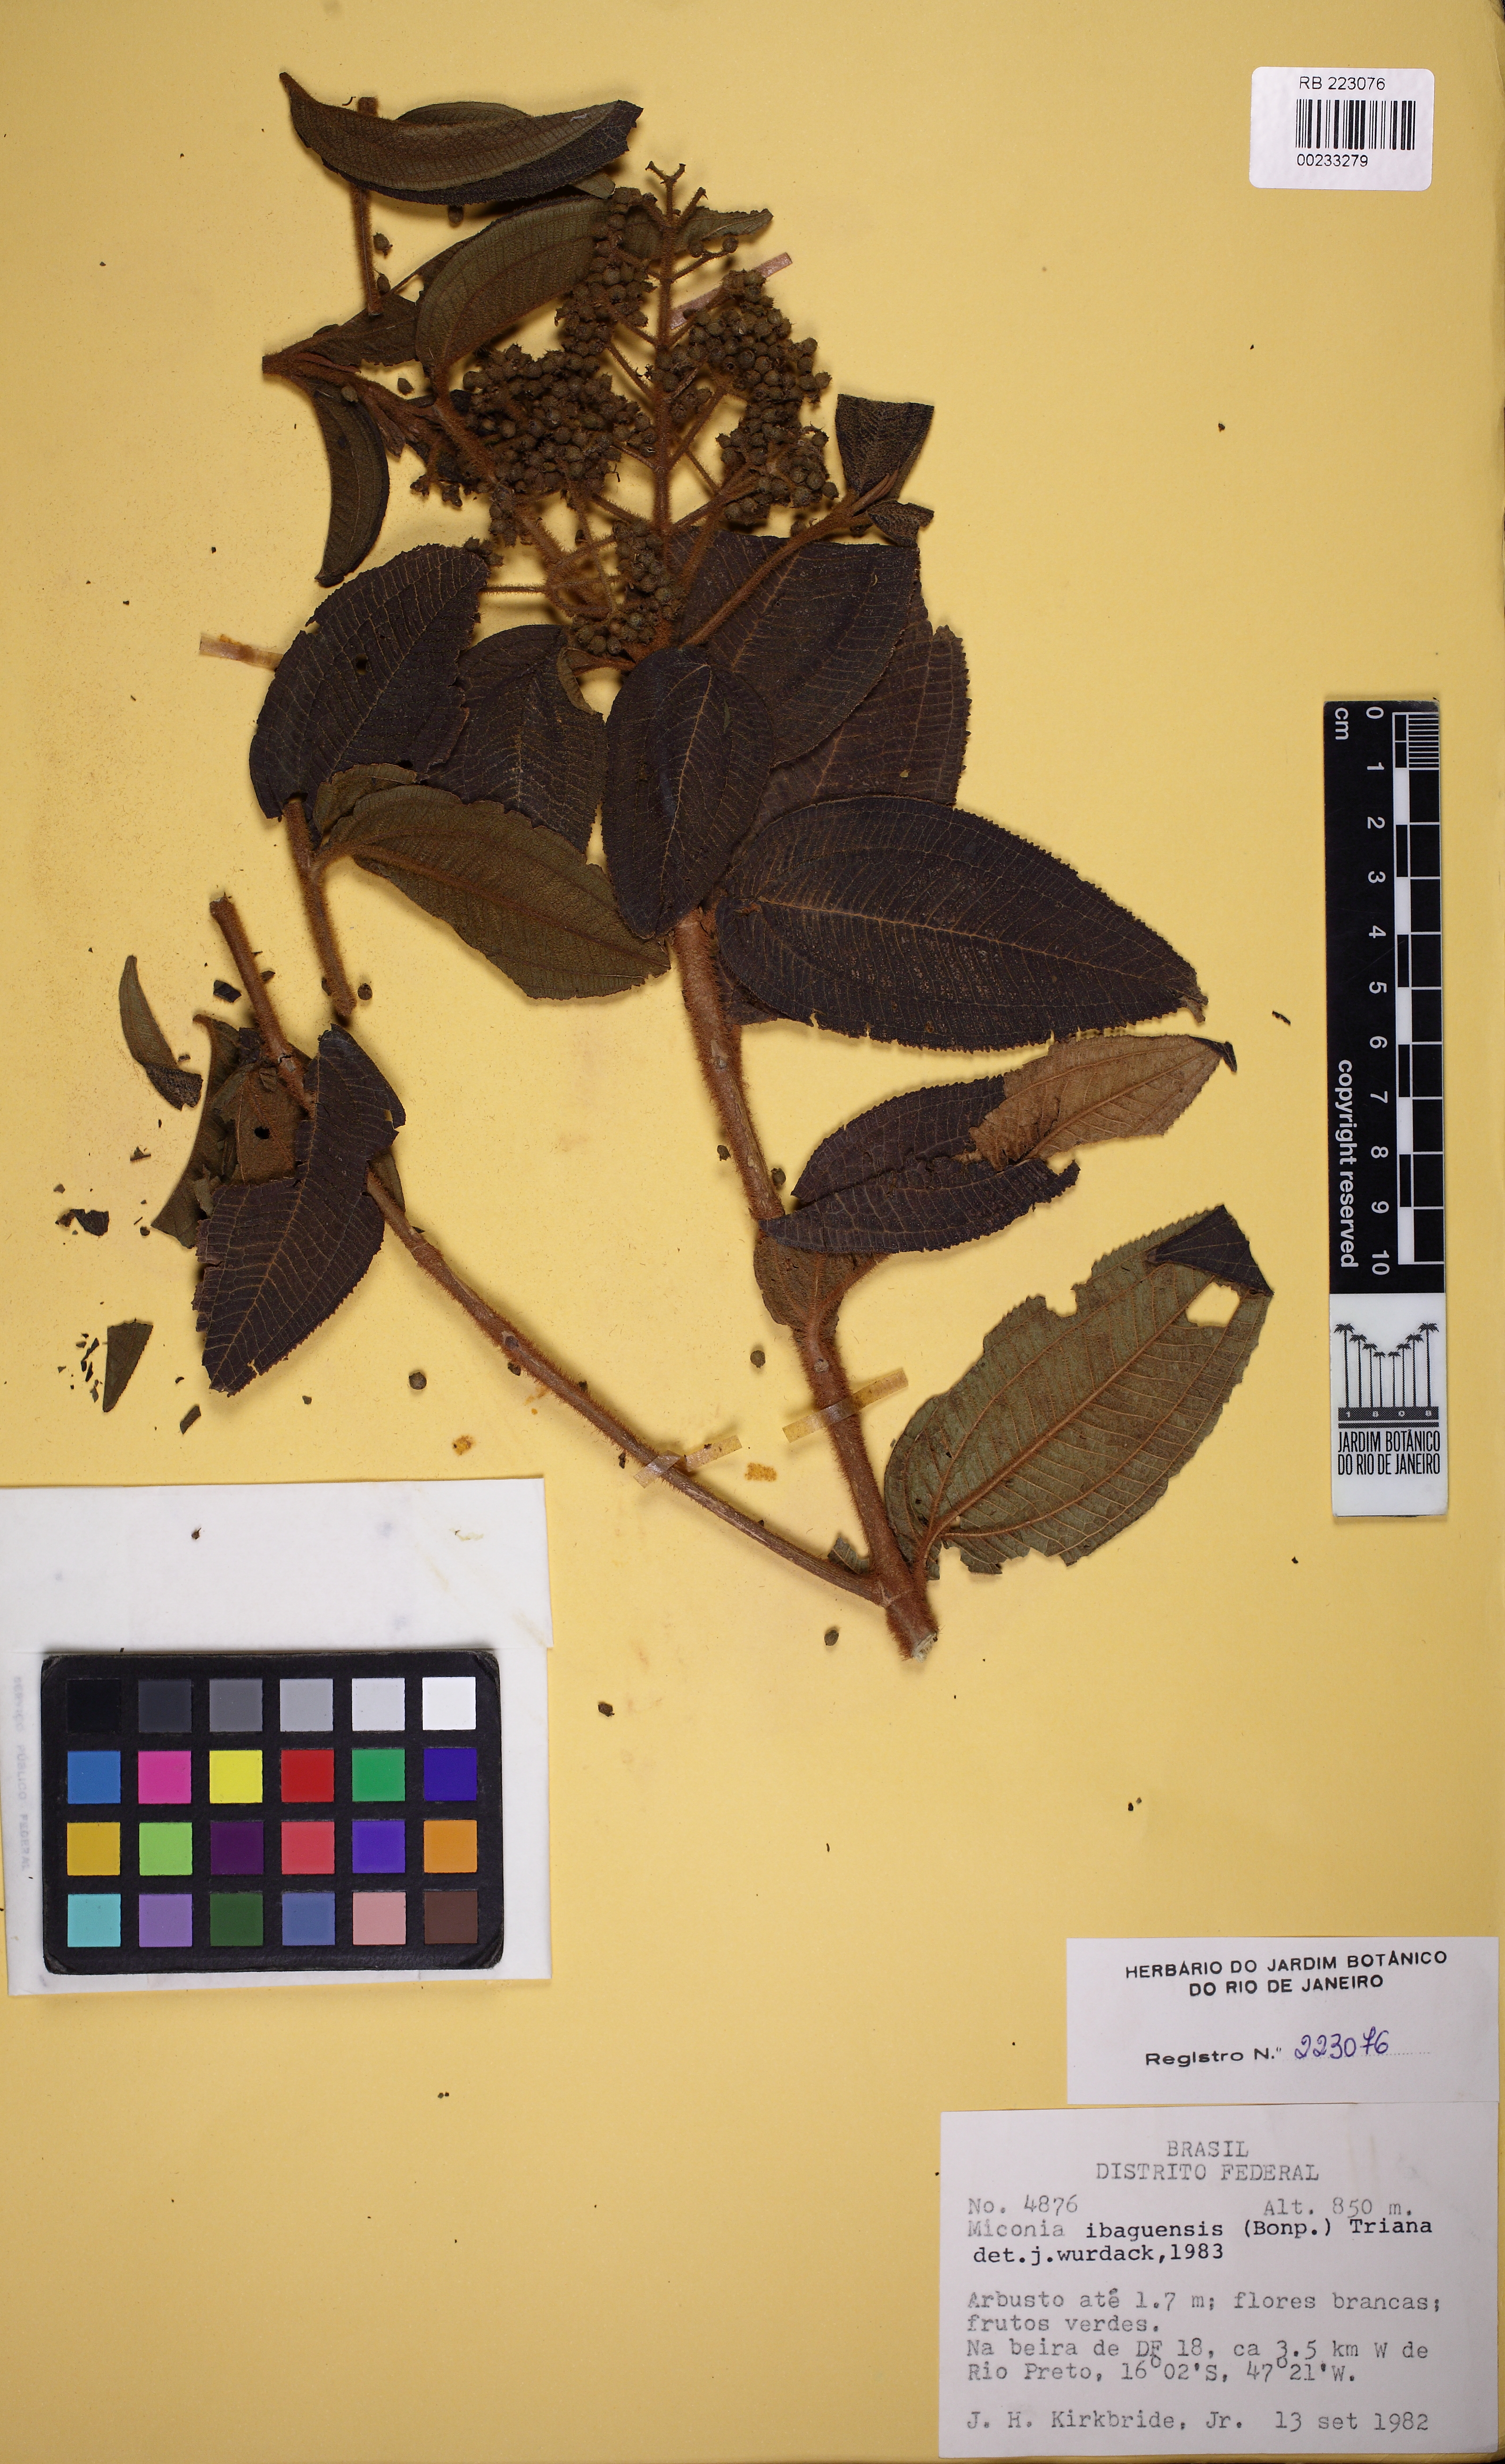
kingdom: Plantae
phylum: Tracheophyta
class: Magnoliopsida
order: Myrtales
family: Melastomataceae
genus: Miconia
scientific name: Miconia ibaguensis
